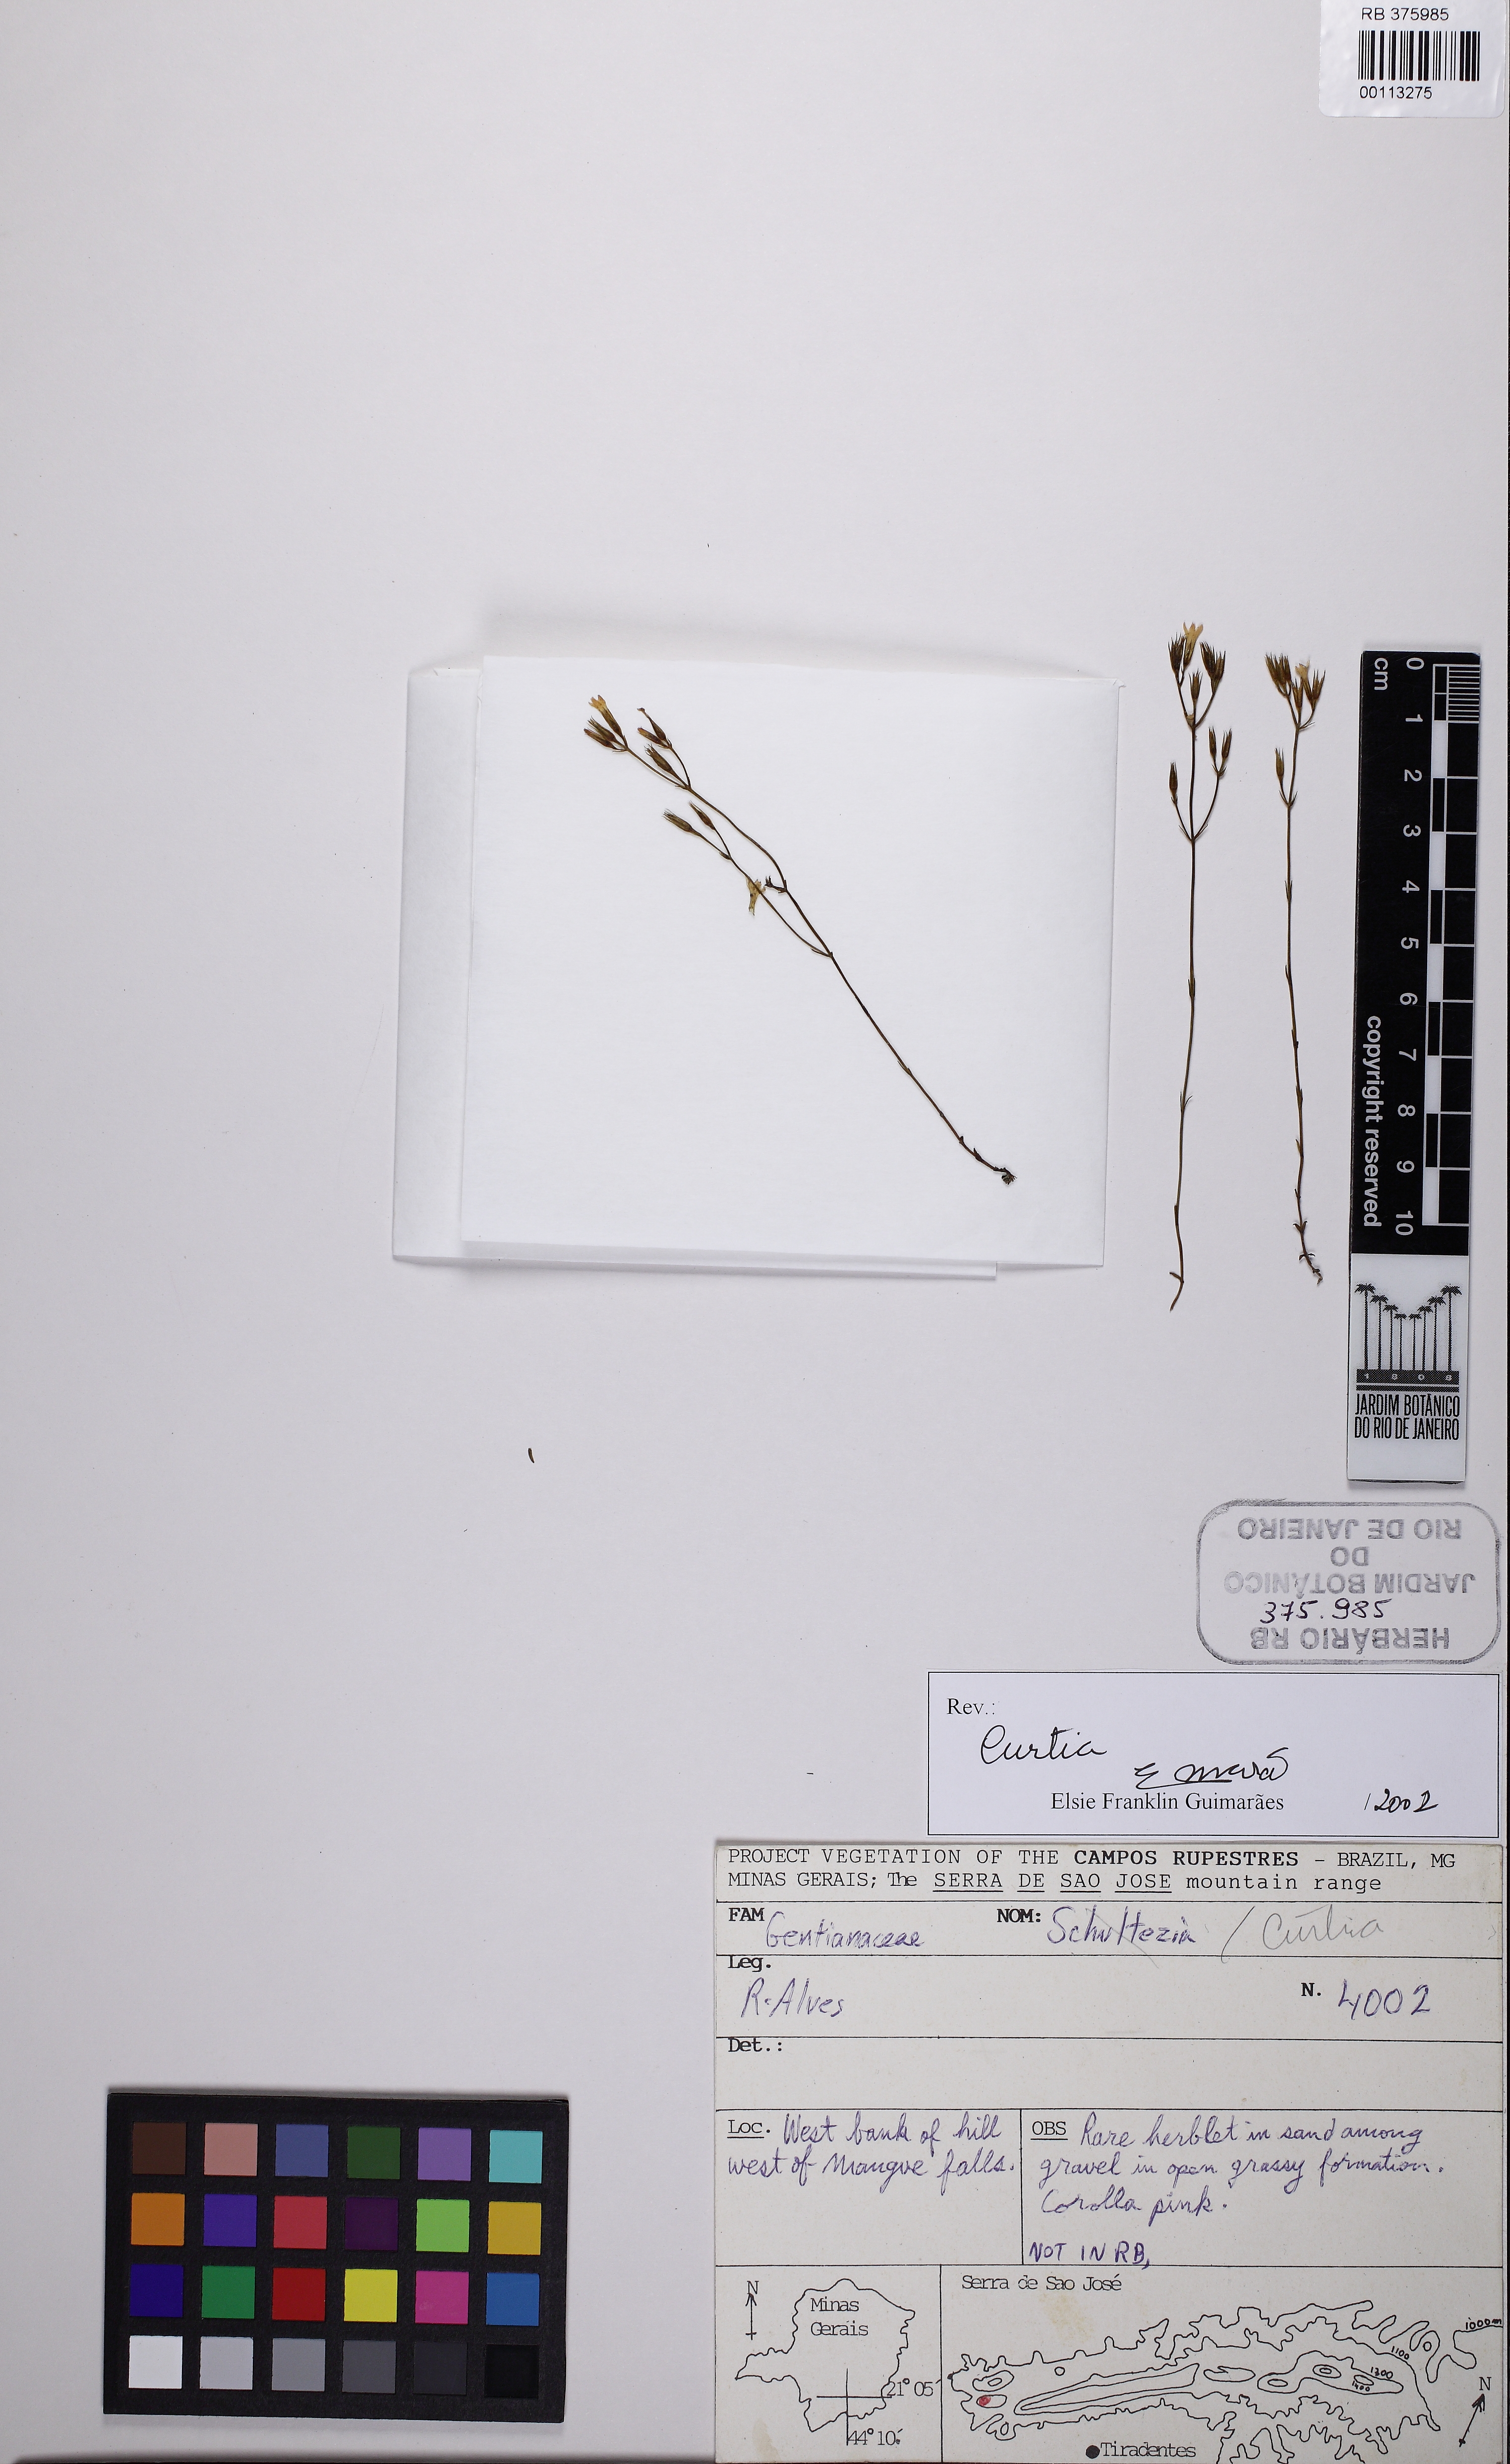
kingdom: Plantae
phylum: Tracheophyta
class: Magnoliopsida
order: Gentianales
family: Gentianaceae
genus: Curtia
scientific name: Curtia
